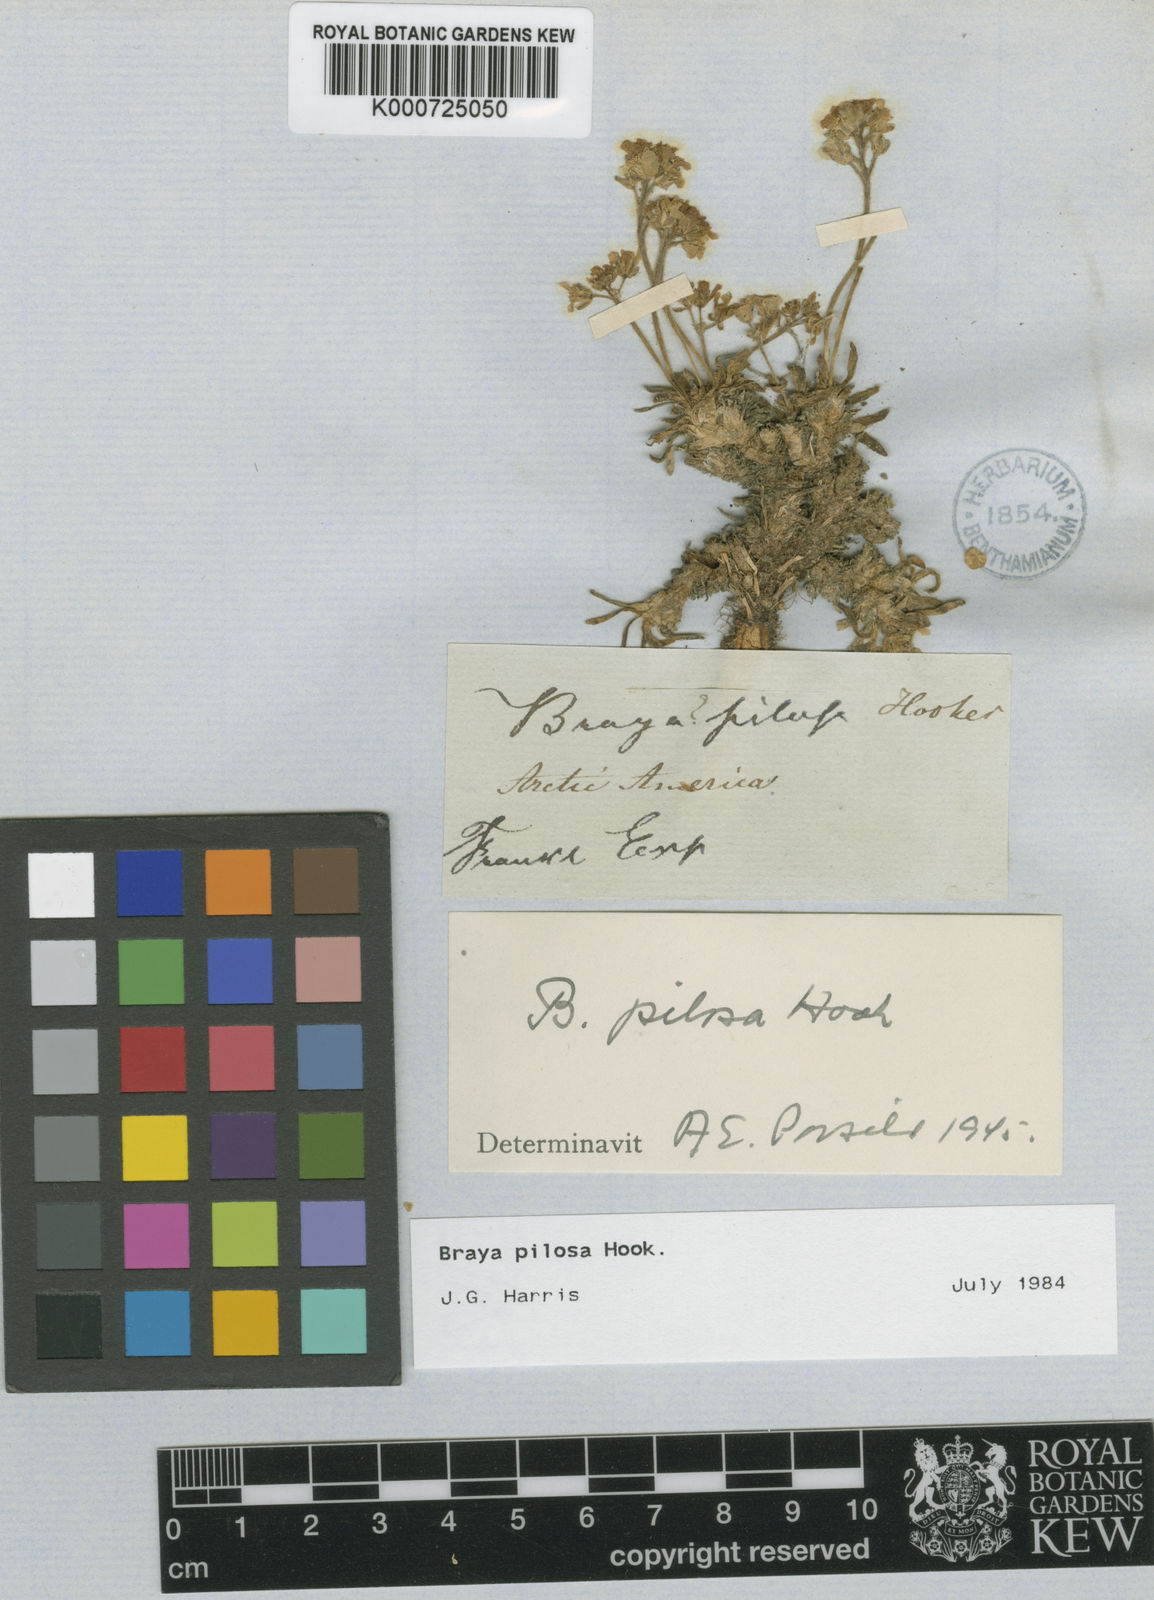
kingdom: Plantae
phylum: Tracheophyta
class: Magnoliopsida
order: Brassicales
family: Brassicaceae
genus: Braya
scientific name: Braya pilosa
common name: Hairy braya
